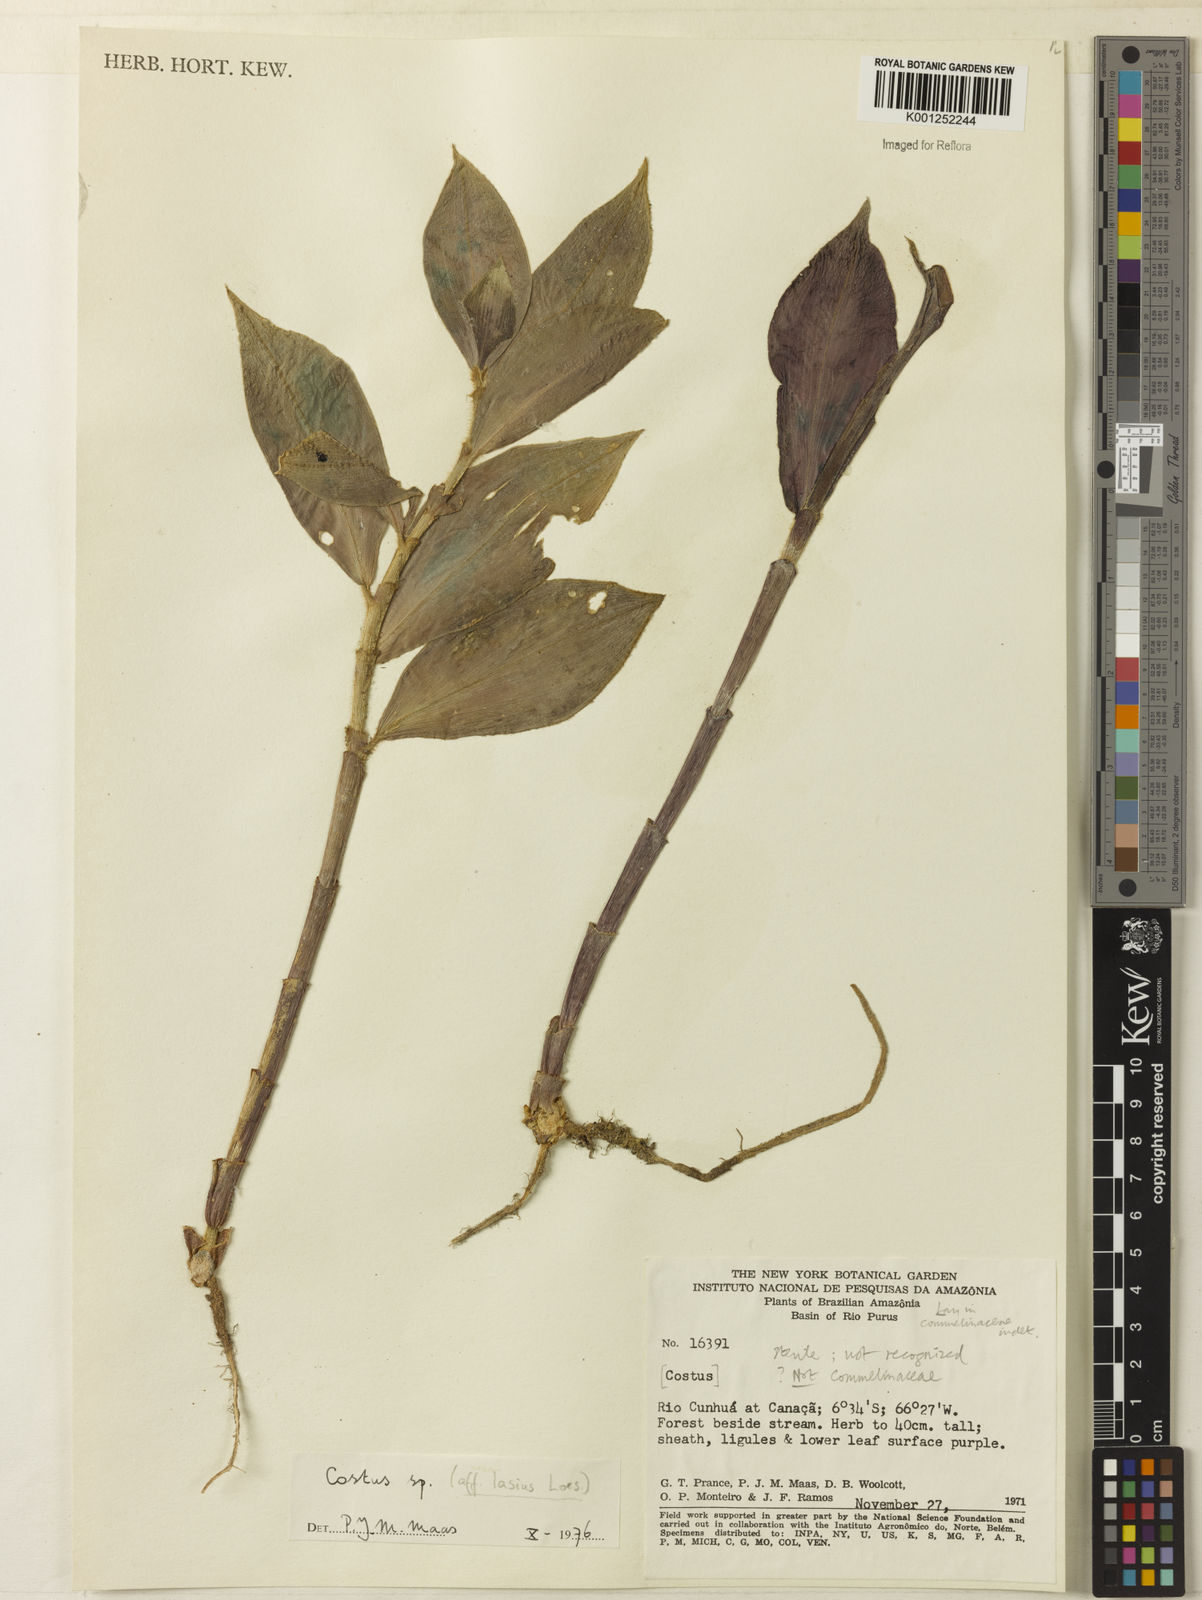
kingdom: Plantae
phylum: Tracheophyta
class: Liliopsida
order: Zingiberales
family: Costaceae
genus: Costus
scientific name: Costus lasius
